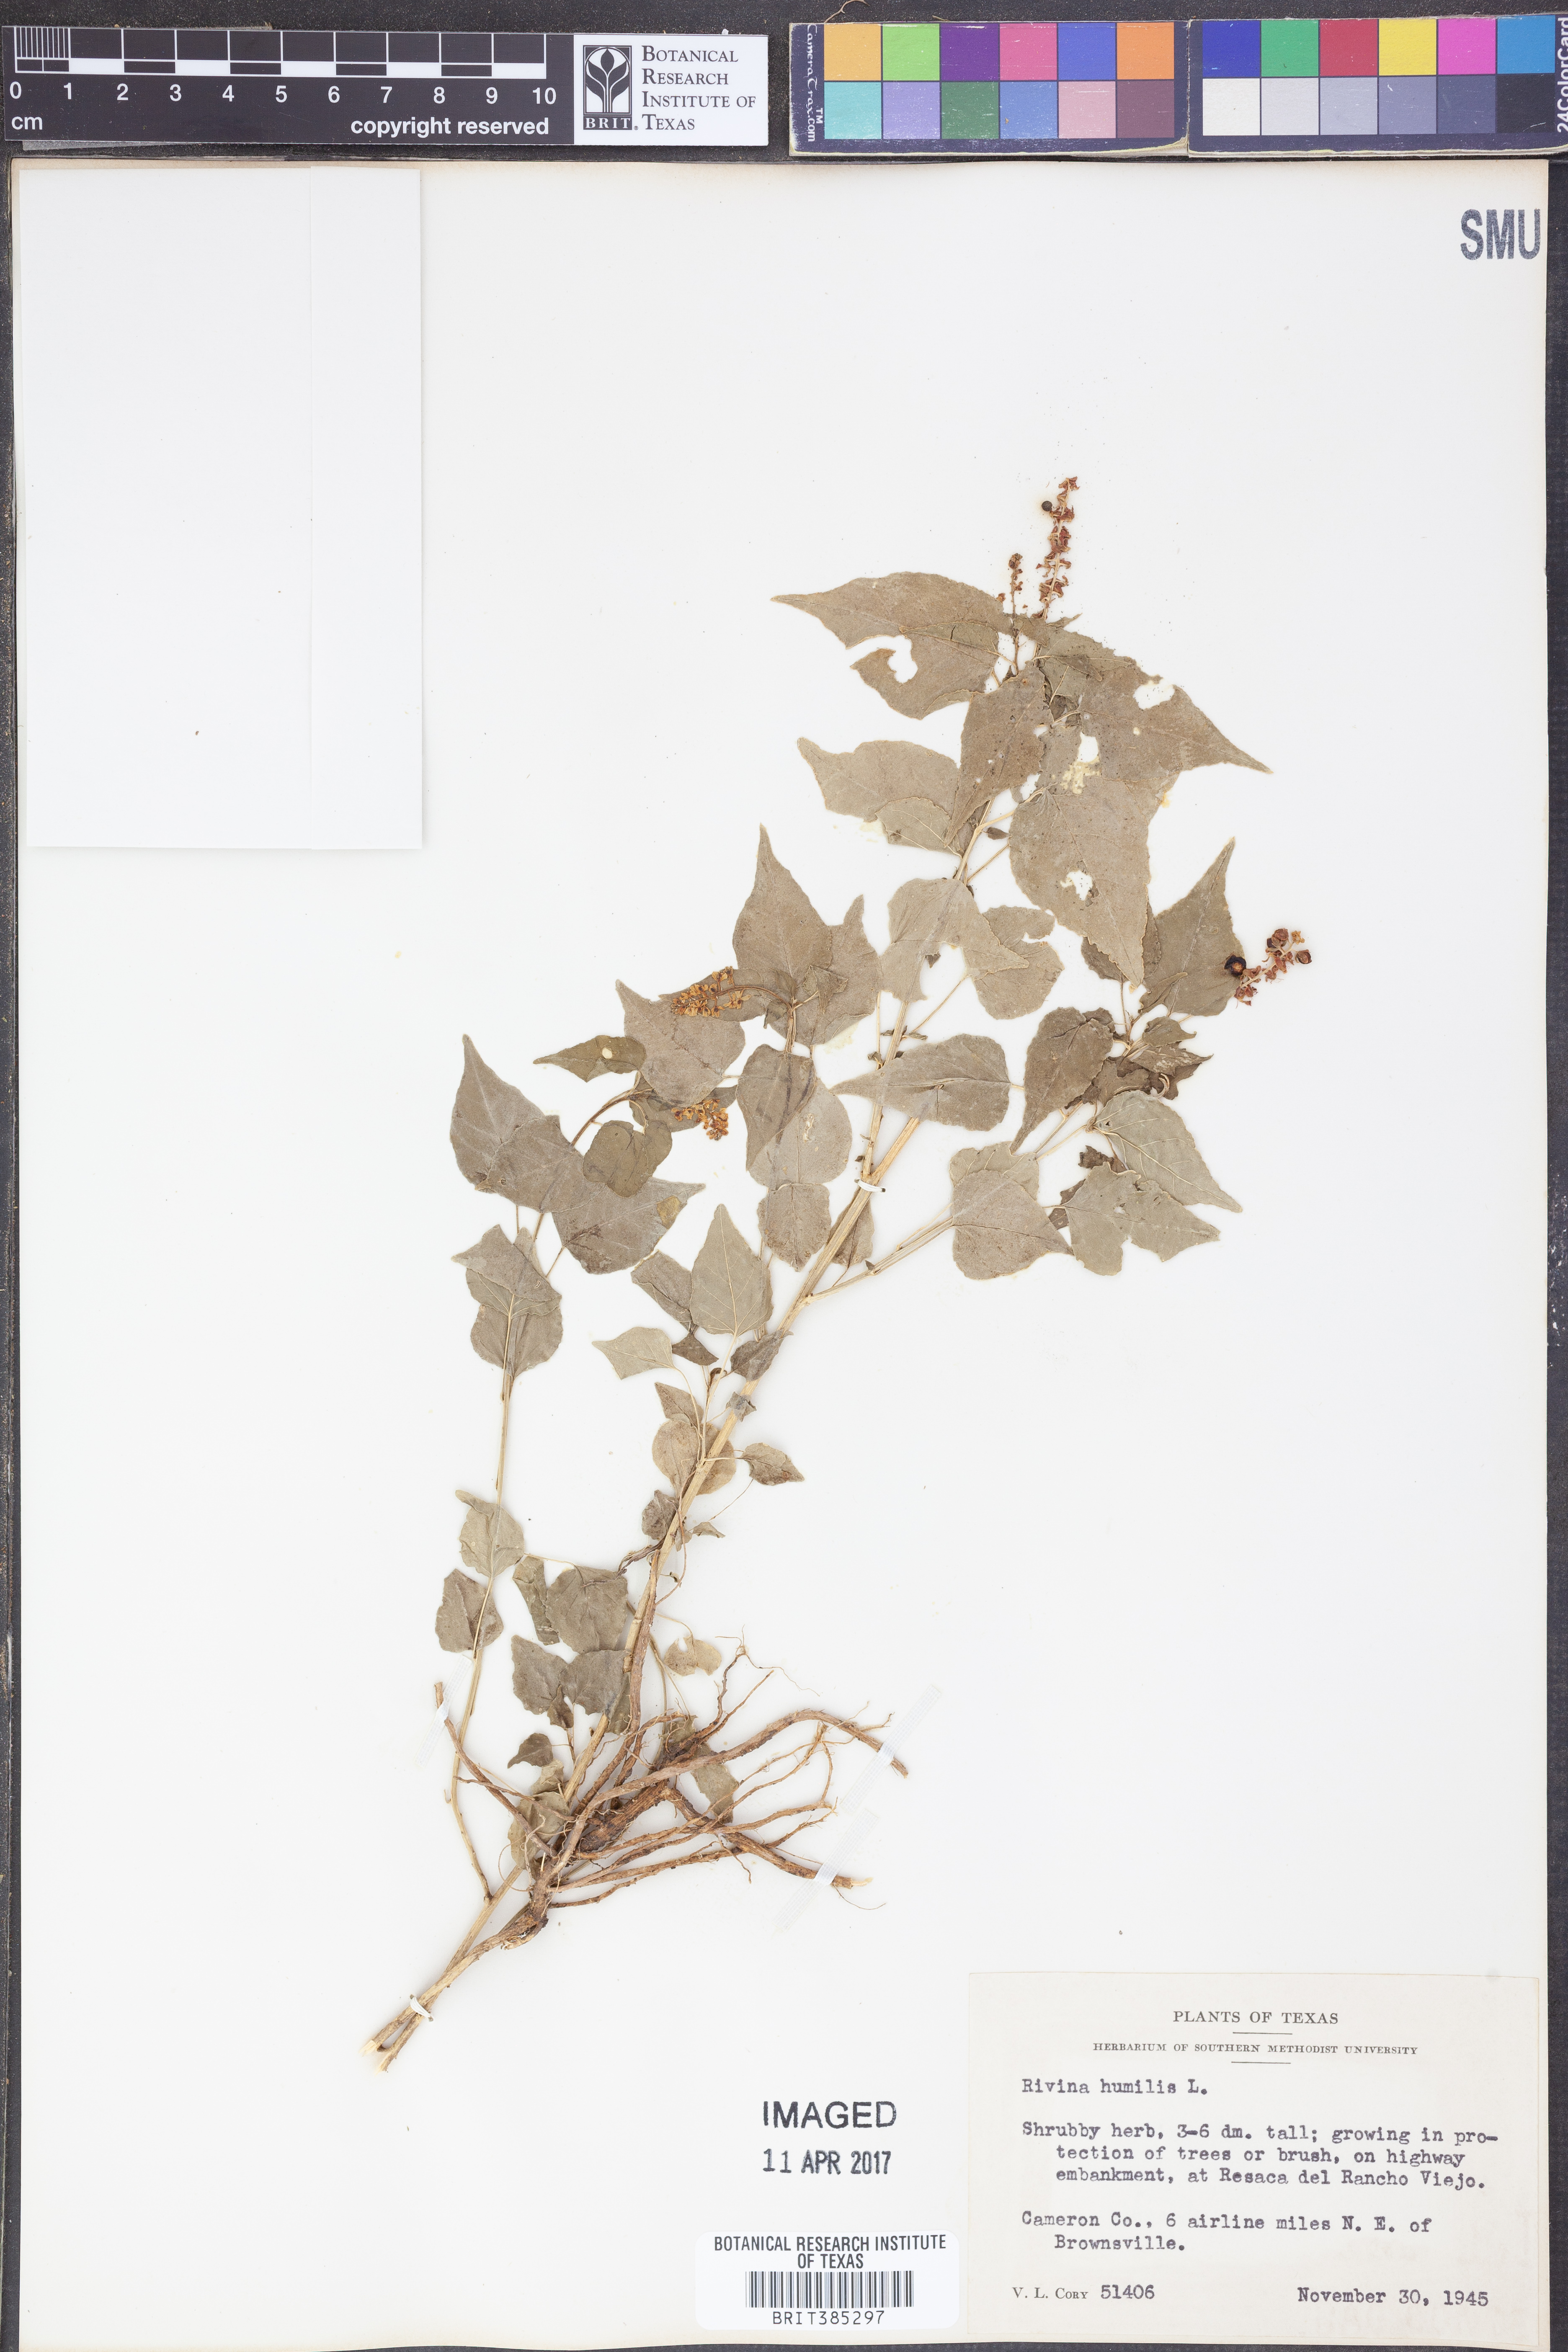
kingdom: Plantae
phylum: Tracheophyta
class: Magnoliopsida
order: Caryophyllales
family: Phytolaccaceae
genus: Rivina
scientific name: Rivina humilis
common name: Rougeplant
